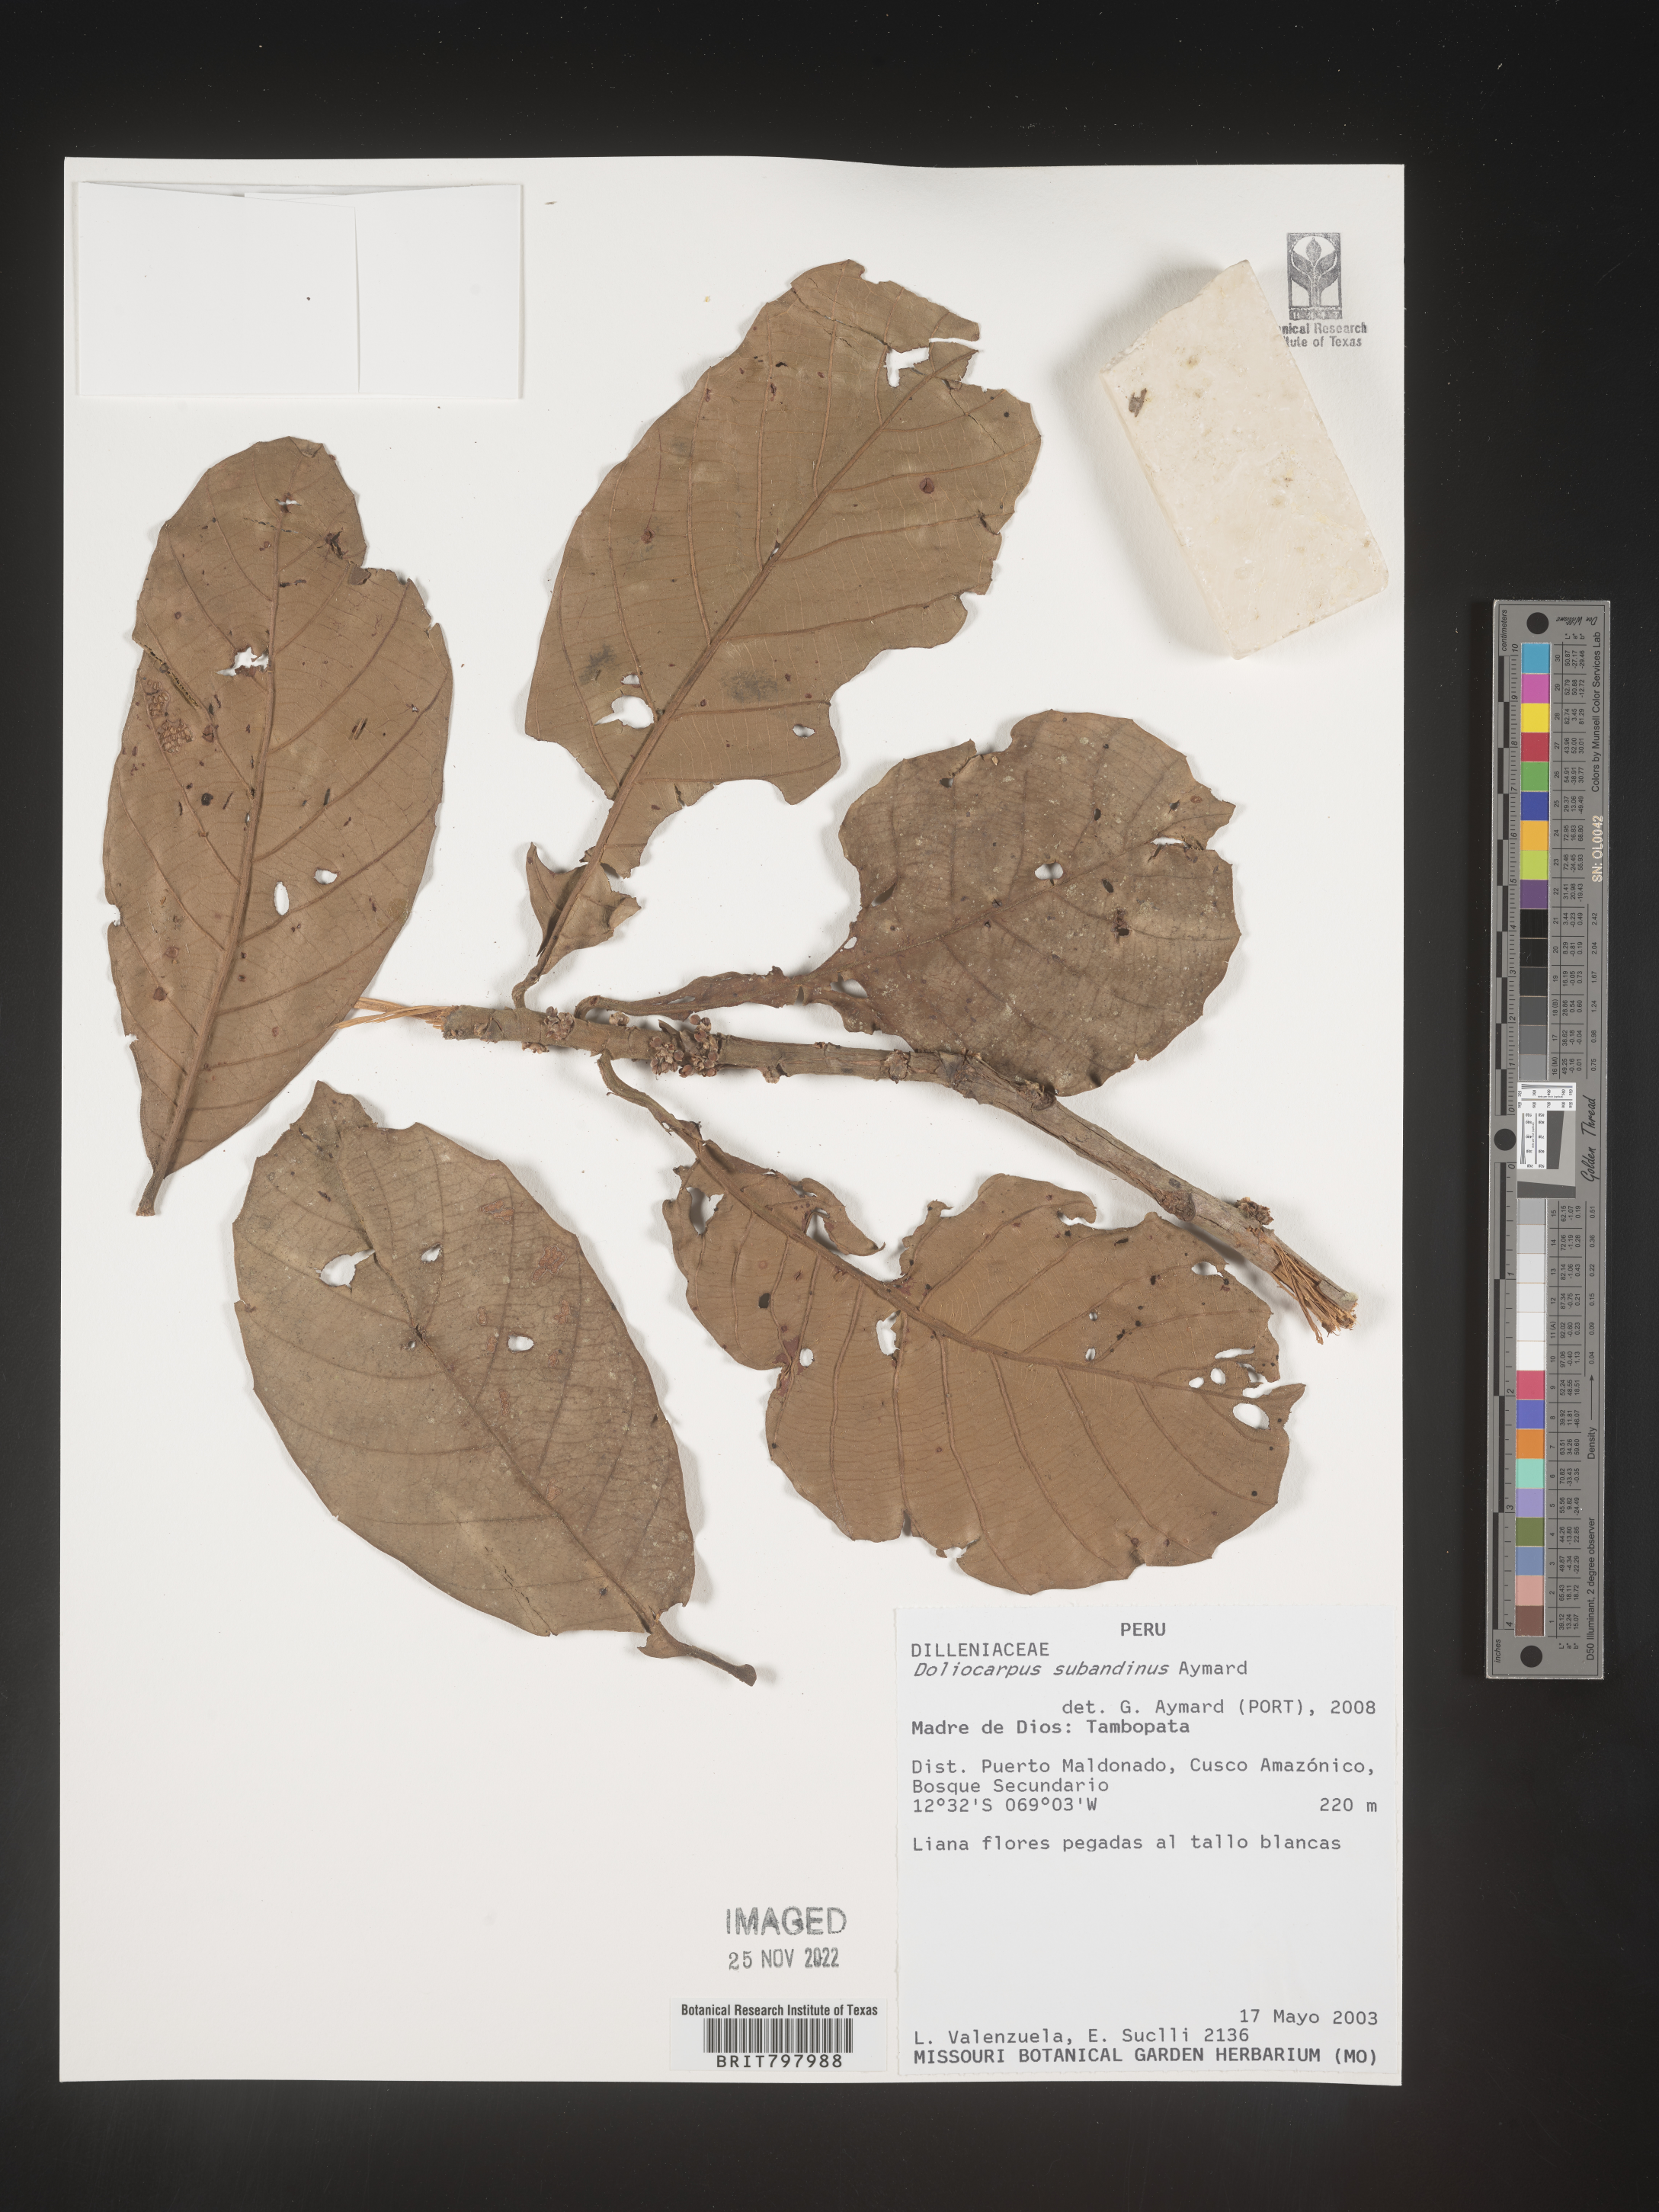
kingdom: Plantae
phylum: Tracheophyta
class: Magnoliopsida
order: Dilleniales
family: Dilleniaceae
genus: Doliocarpus
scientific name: Doliocarpus
